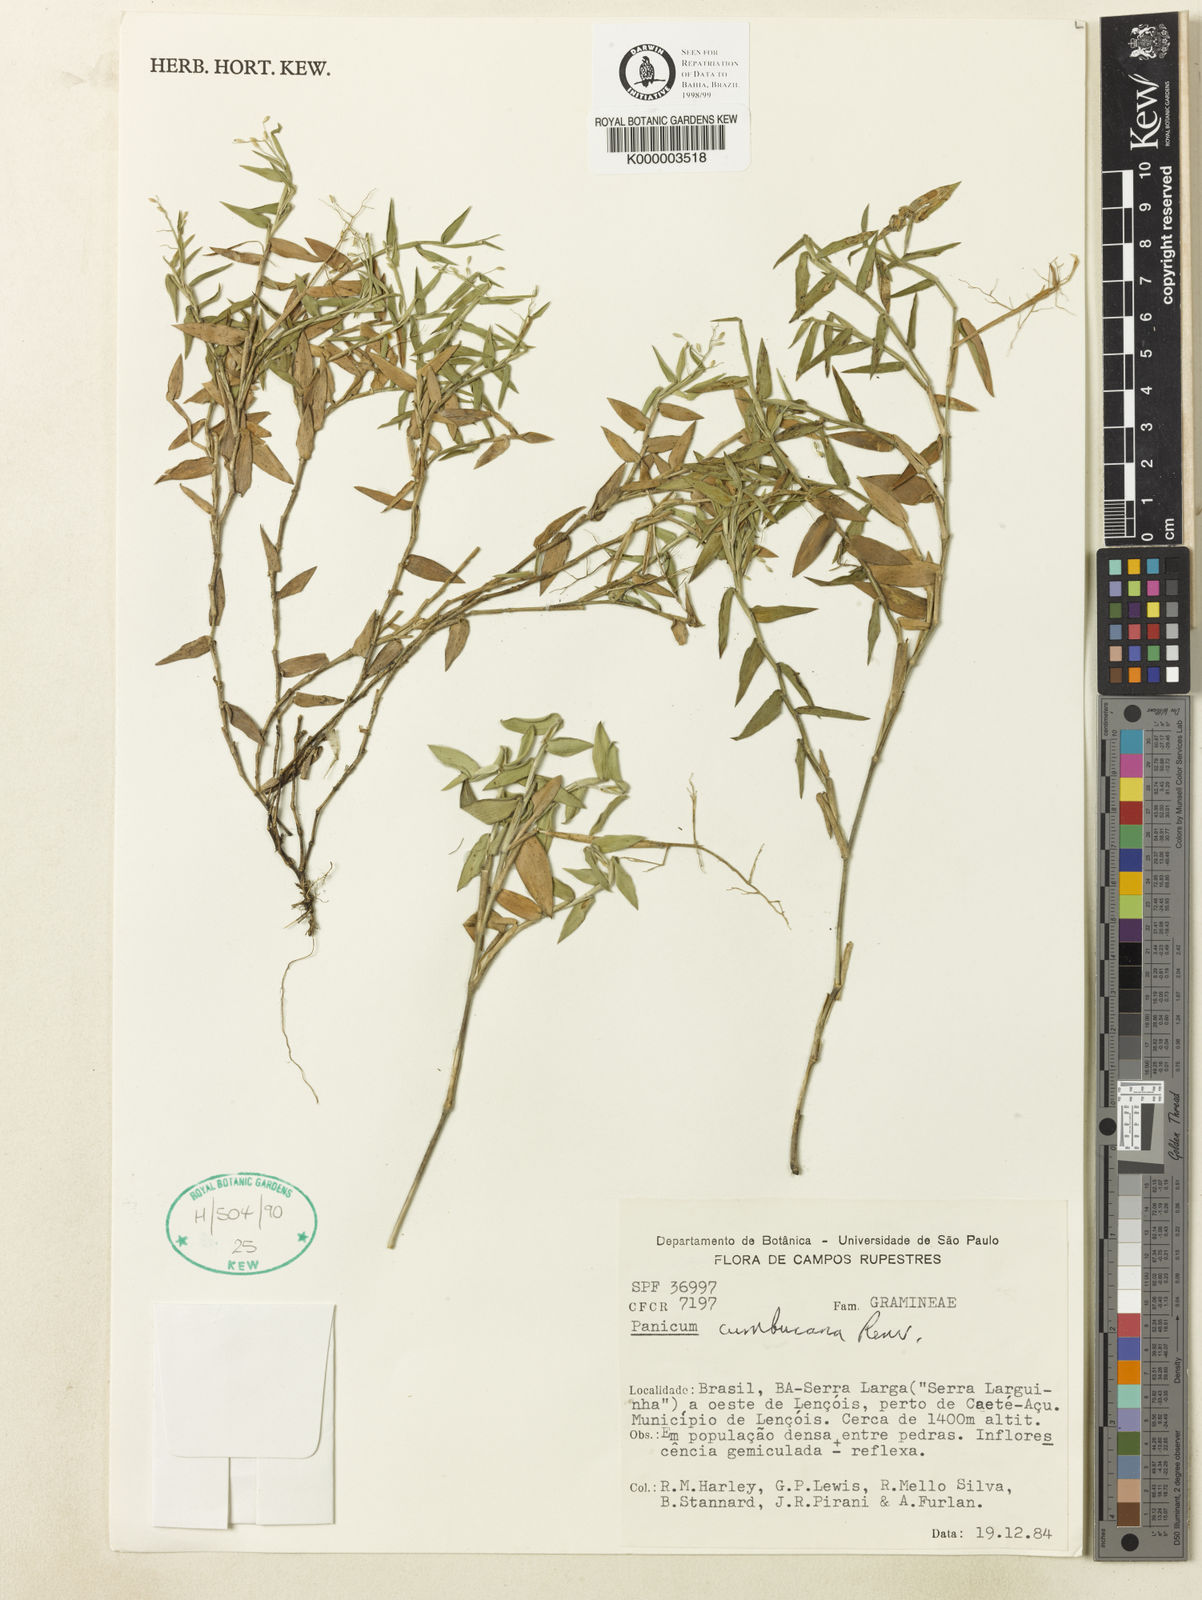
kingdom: Plantae
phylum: Tracheophyta
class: Liliopsida
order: Poales
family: Poaceae
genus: Dichanthelium
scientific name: Dichanthelium cumbucanum
